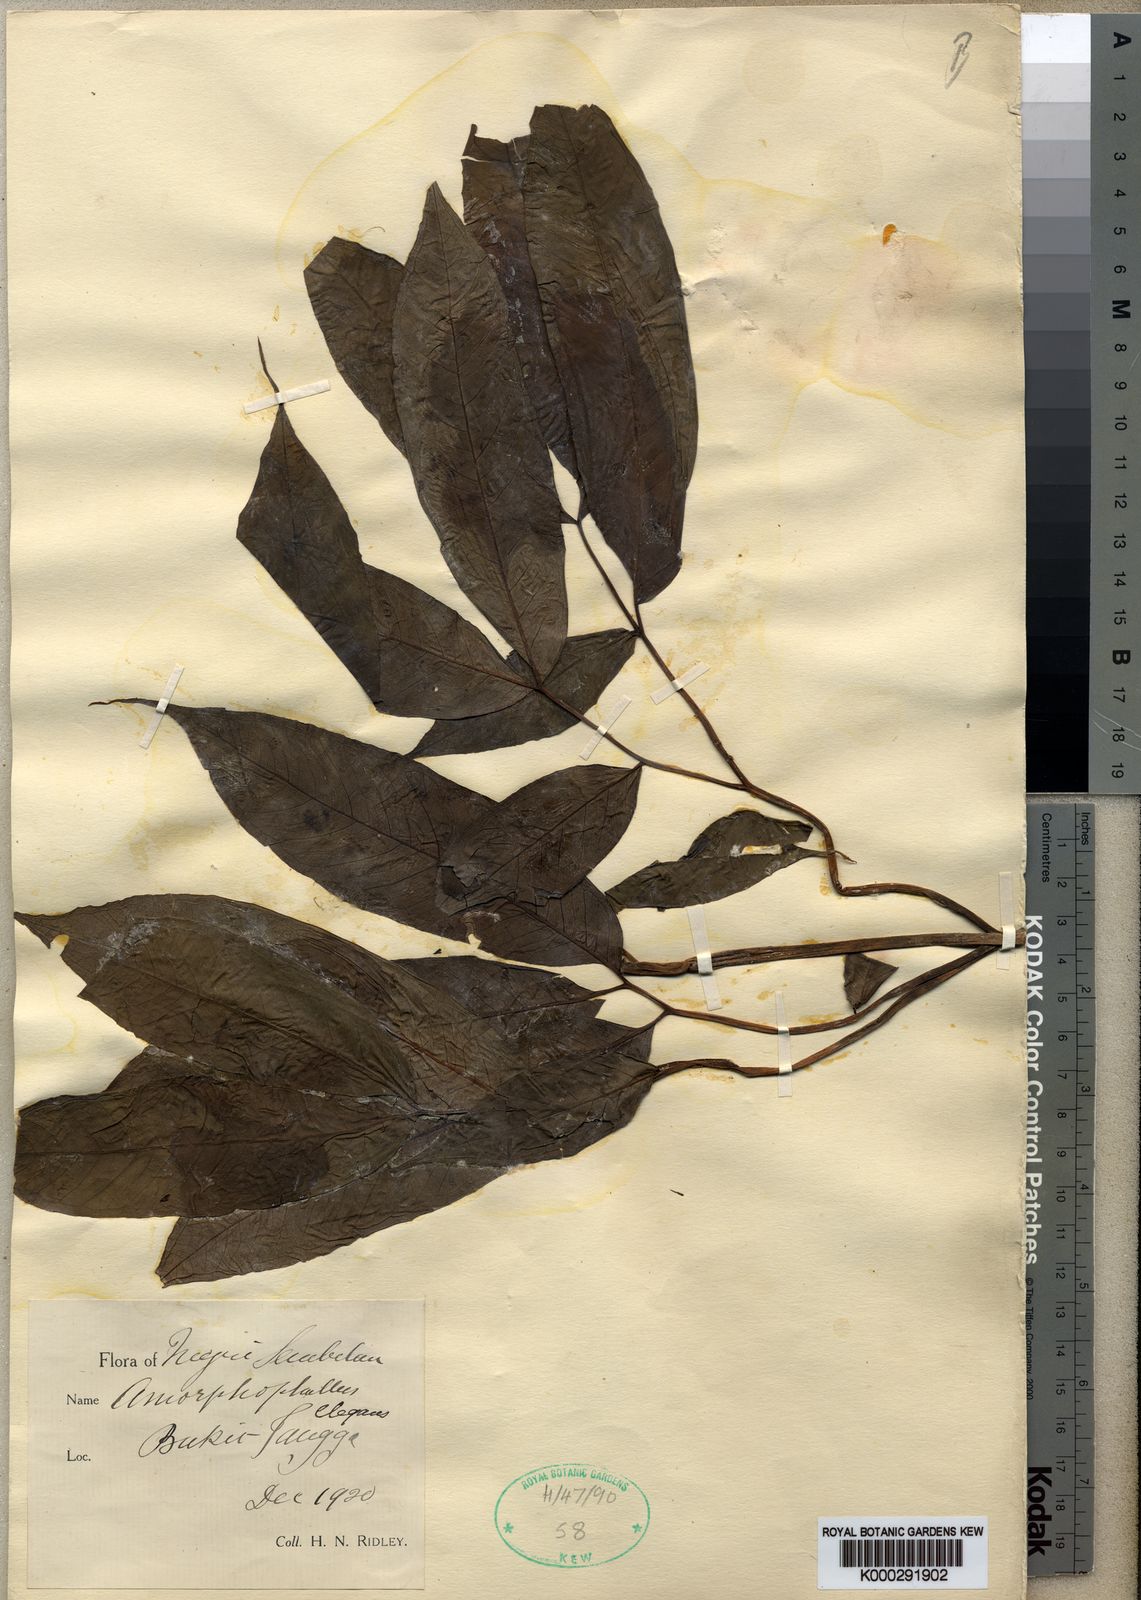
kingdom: Plantae
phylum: Tracheophyta
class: Liliopsida
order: Alismatales
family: Araceae
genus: Amorphophallus
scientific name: Amorphophallus elegans
